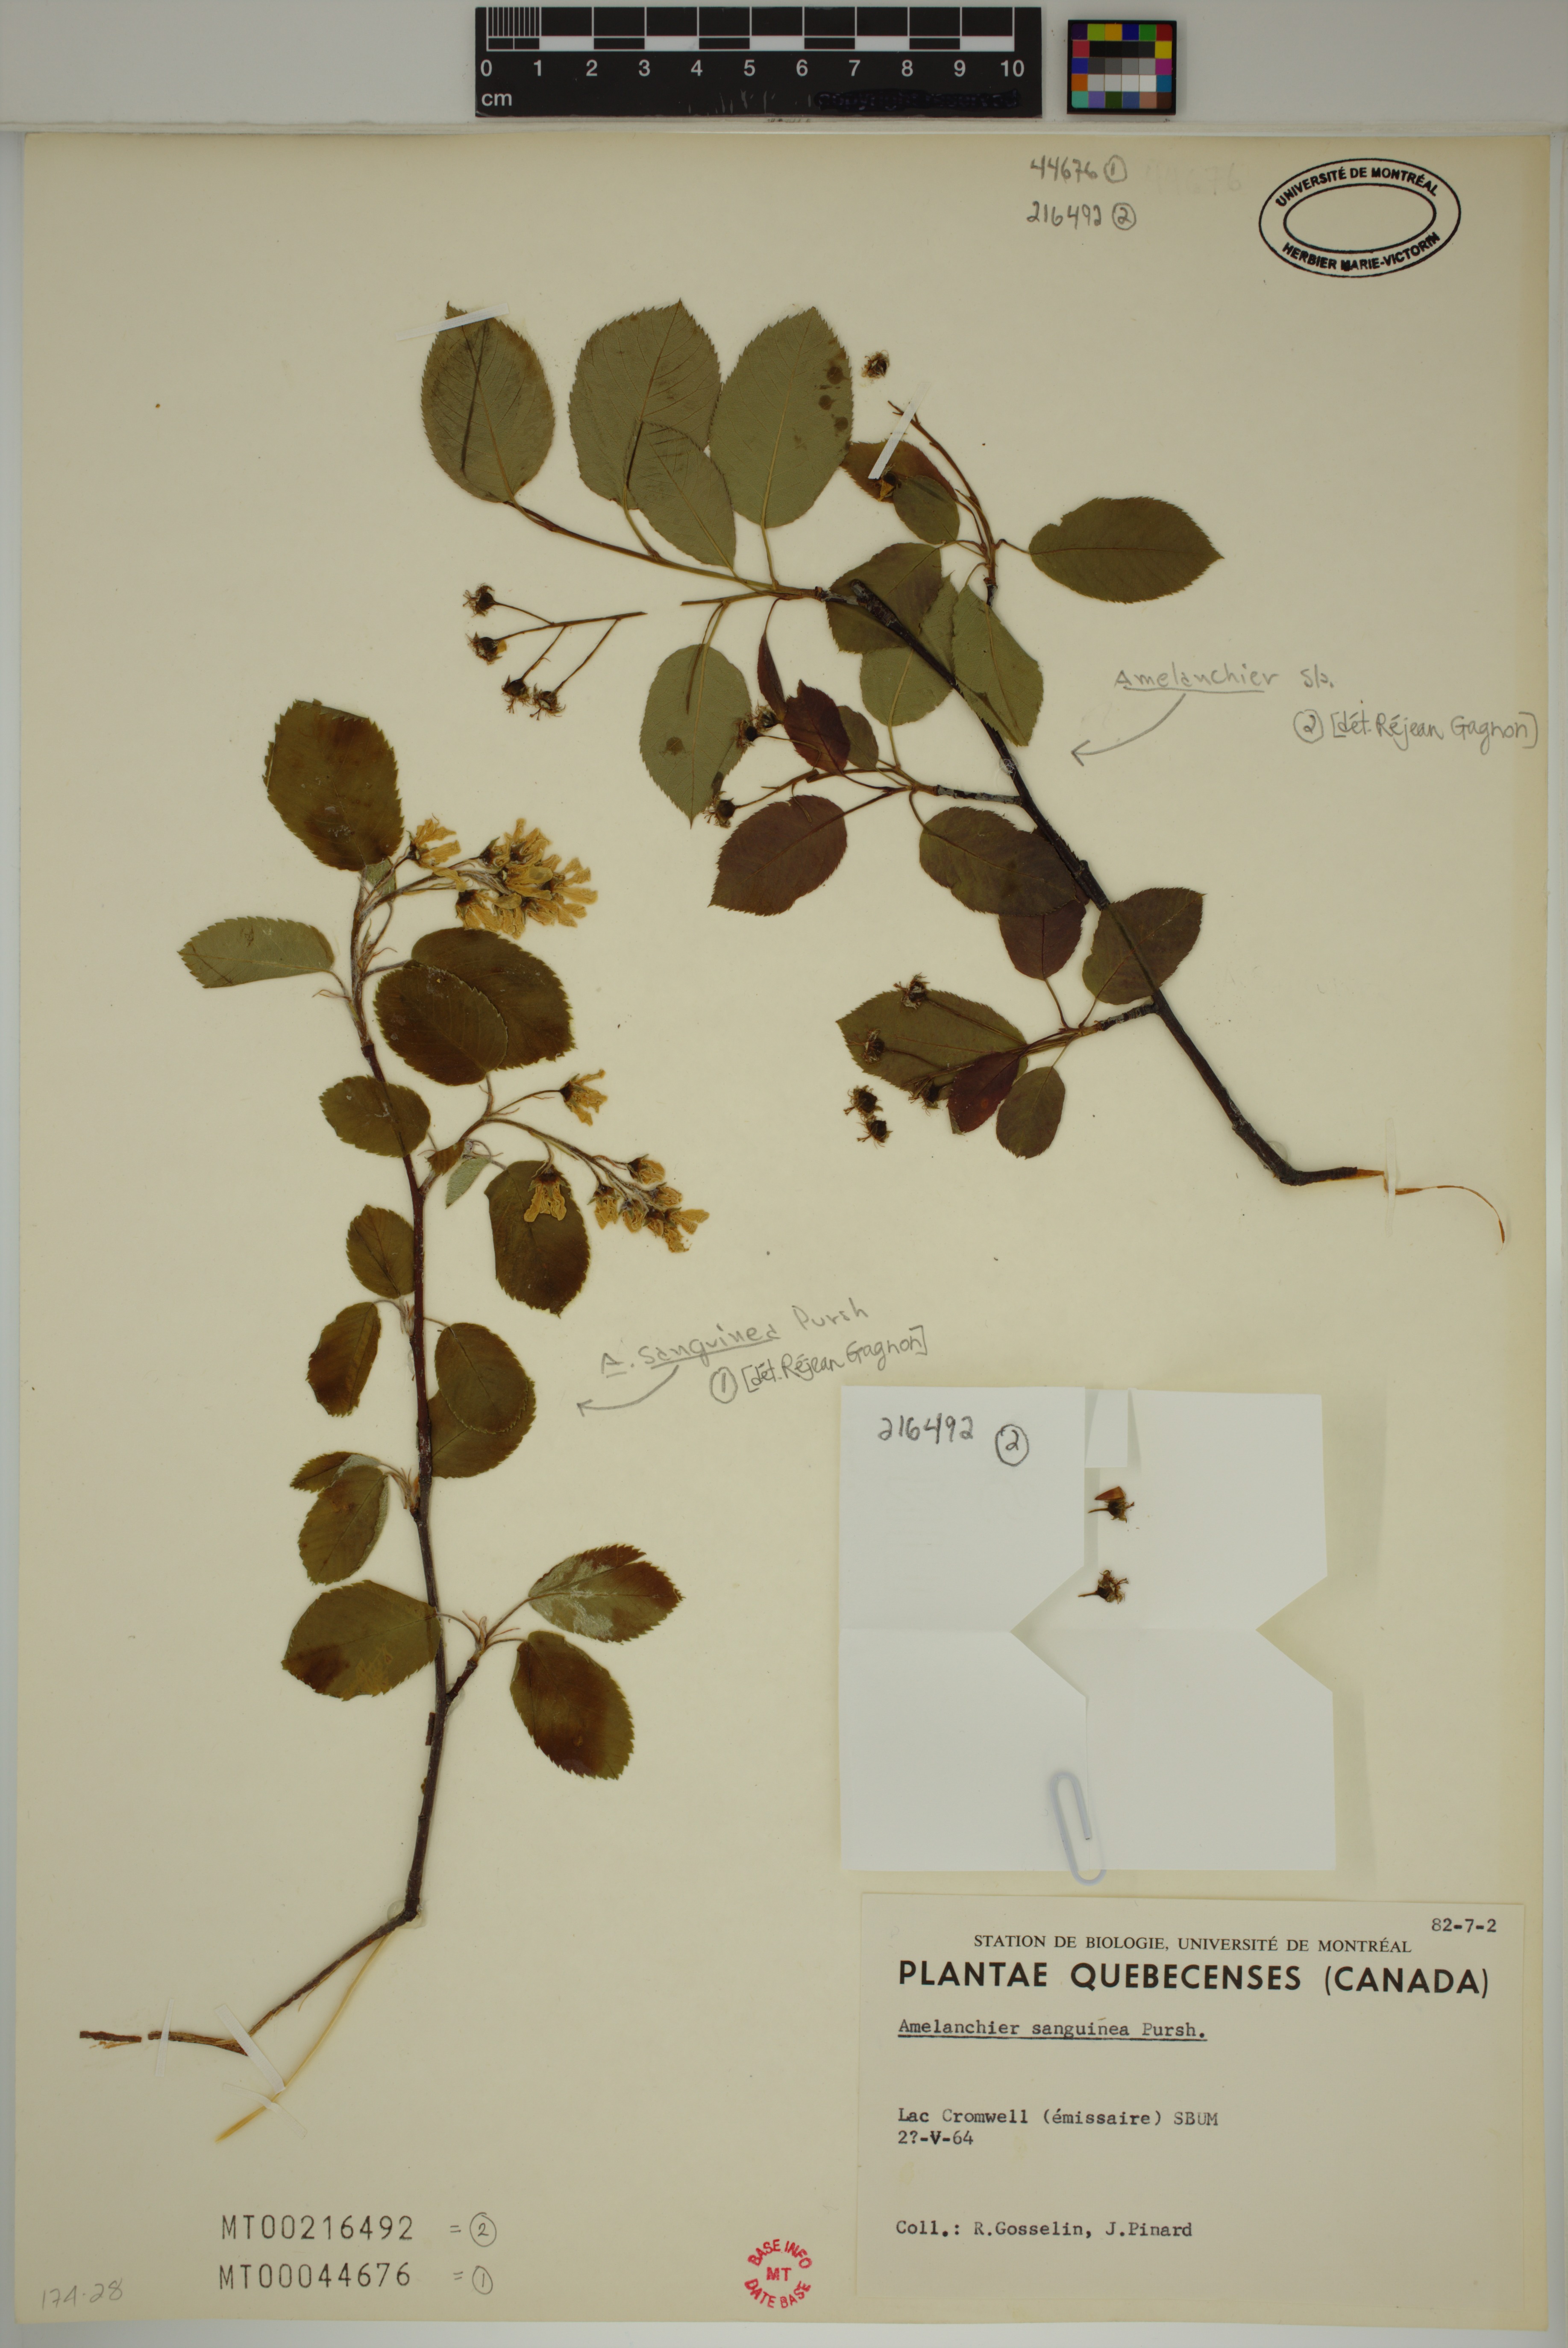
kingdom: Plantae
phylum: Tracheophyta
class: Magnoliopsida
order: Rosales
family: Rosaceae
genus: Amelanchier
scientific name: Amelanchier
